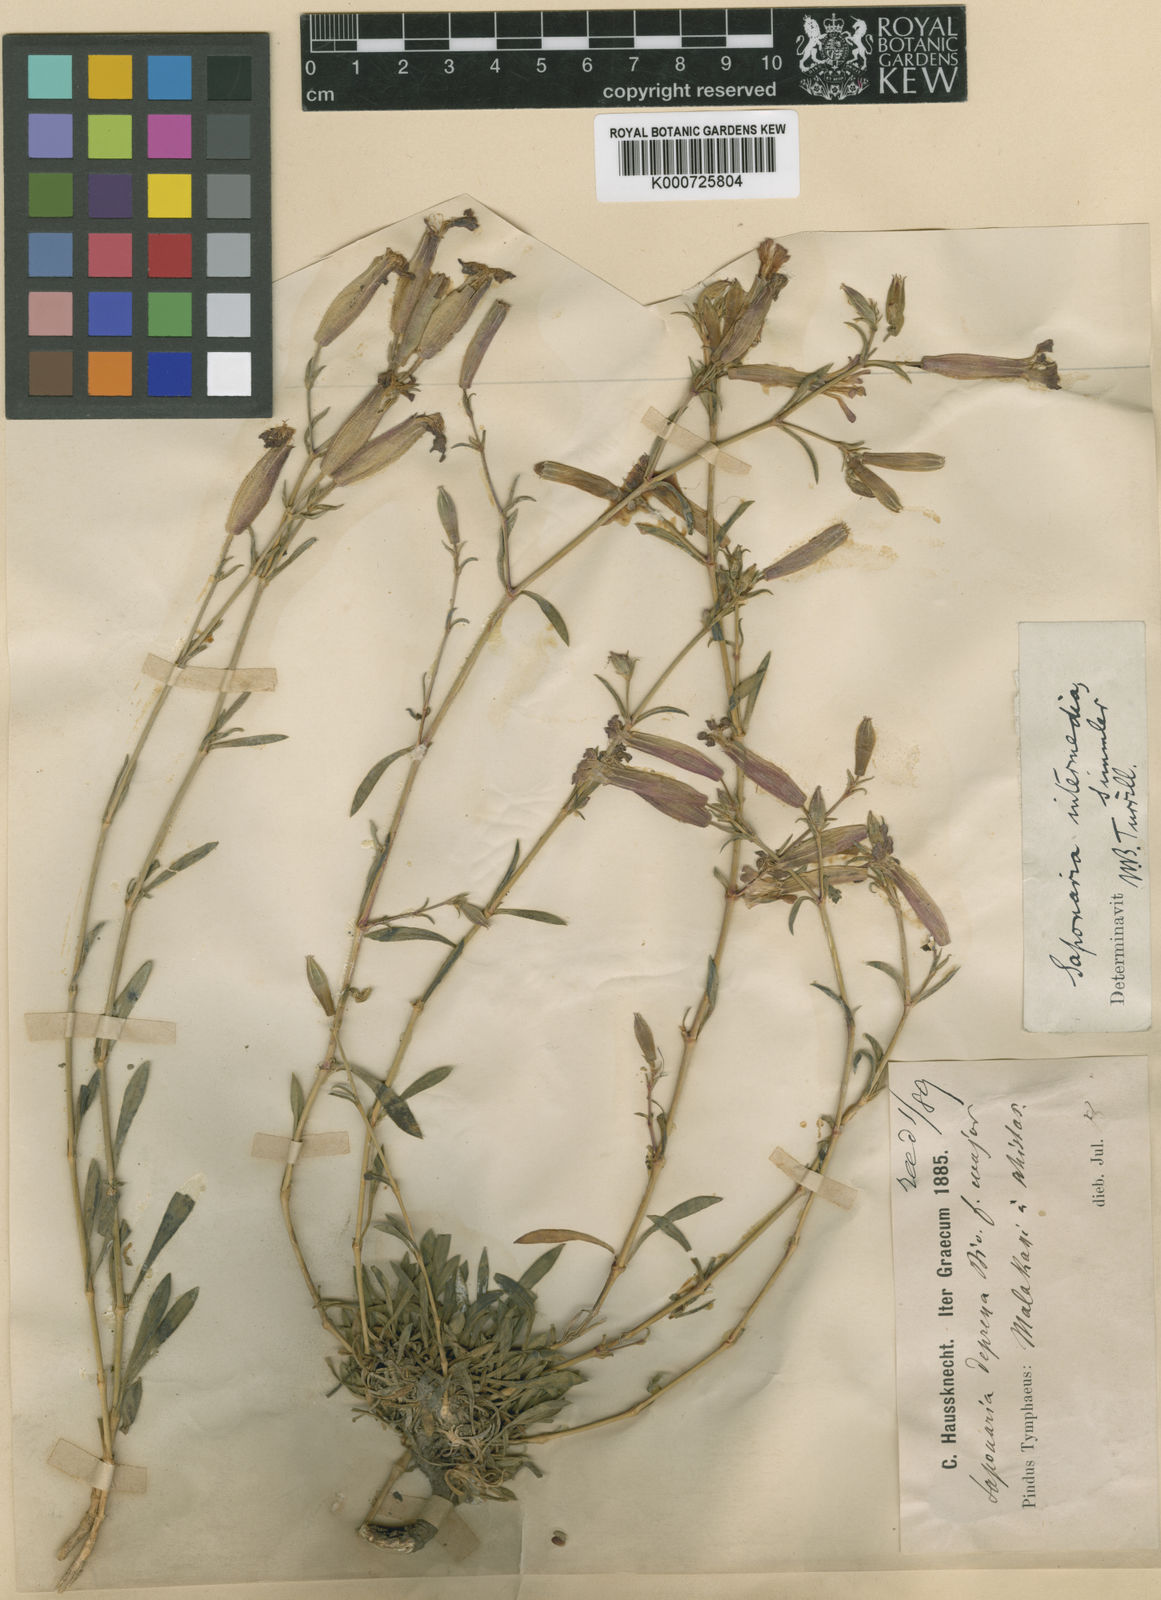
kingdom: Plantae
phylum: Tracheophyta
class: Magnoliopsida
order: Caryophyllales
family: Caryophyllaceae
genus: Saponaria
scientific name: Saponaria sicula
